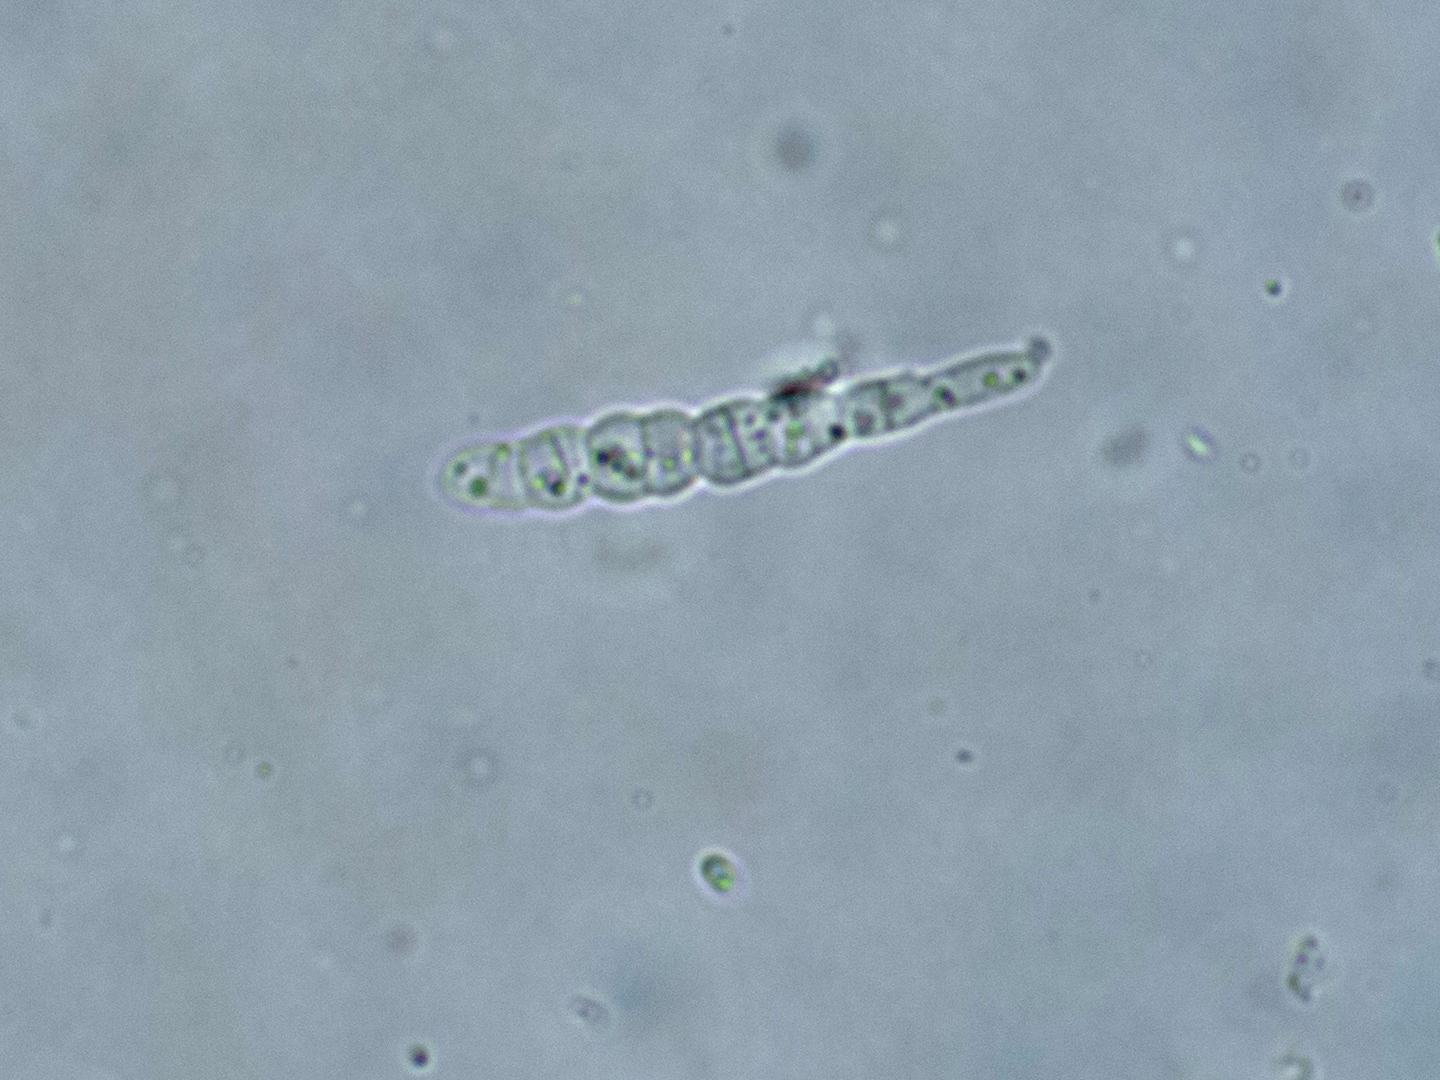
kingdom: Fungi
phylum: Ascomycota
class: Leotiomycetes
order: Leotiales
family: Tympanidaceae
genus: Vexillomyces
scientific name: Vexillomyces atrovirens
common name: sortgrøn linseskive
